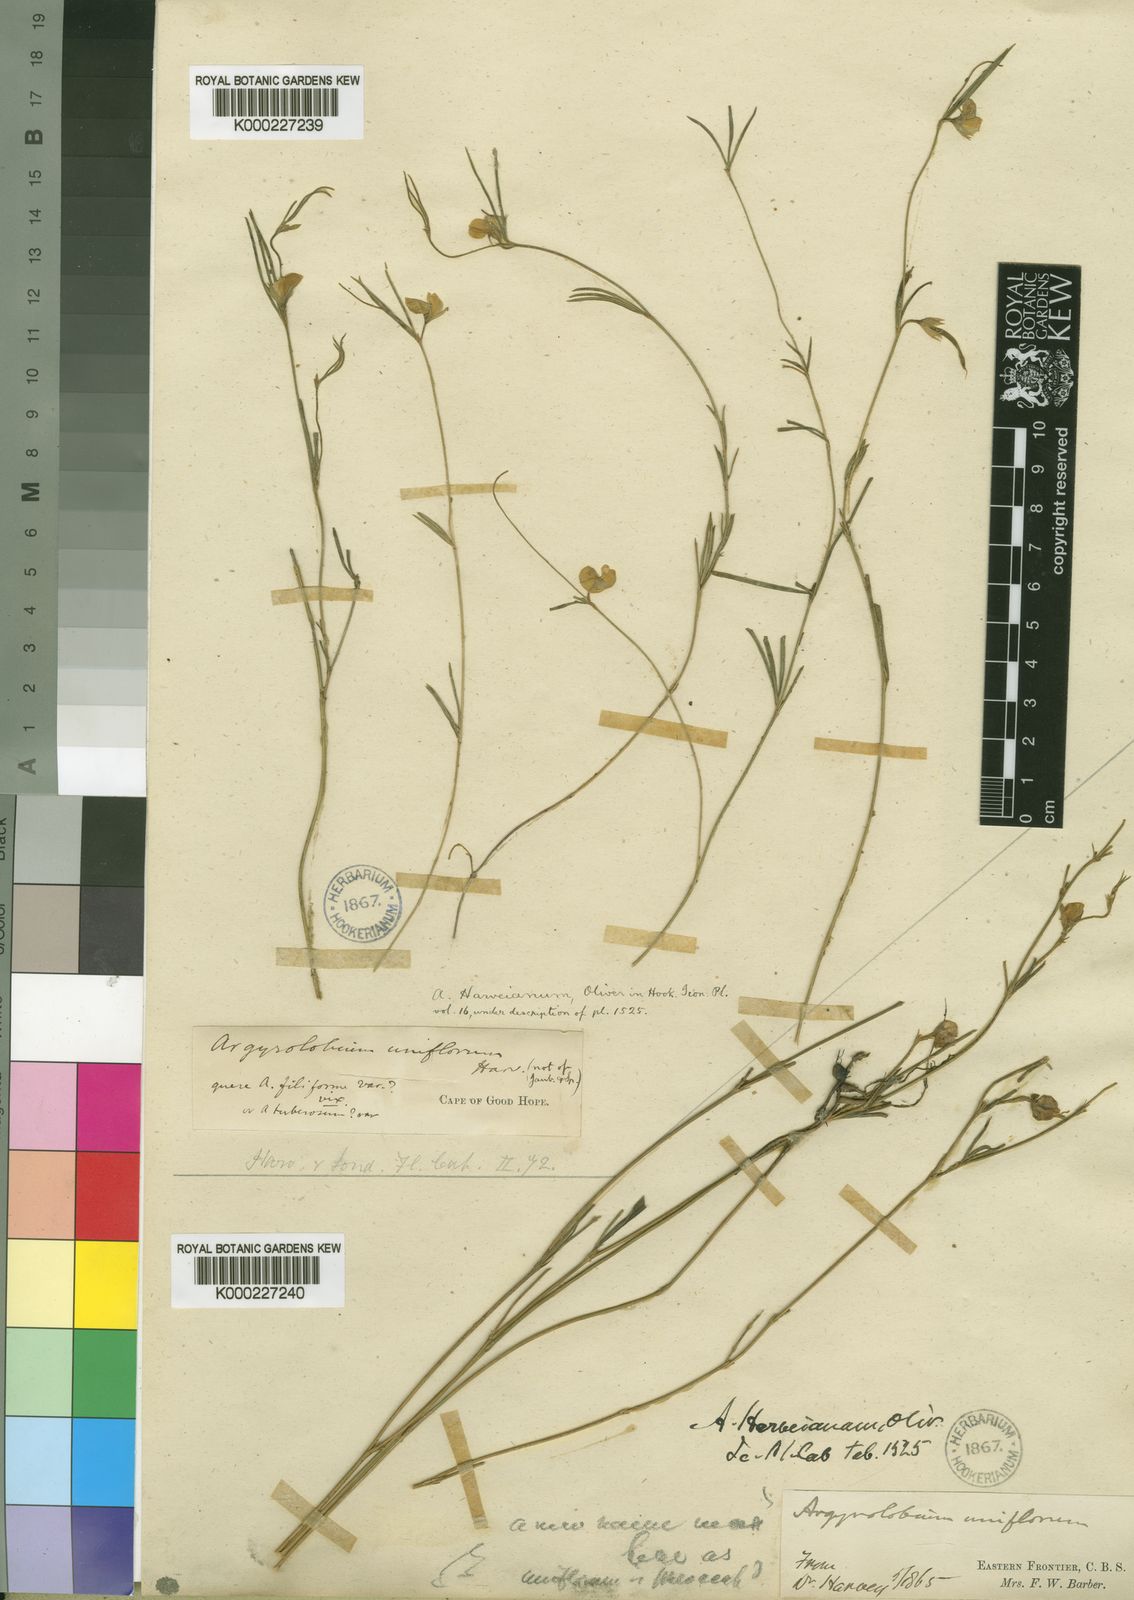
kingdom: Plantae
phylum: Tracheophyta
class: Magnoliopsida
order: Fabales
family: Fabaceae
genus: Argyrolobium
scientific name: Argyrolobium harveyanum
